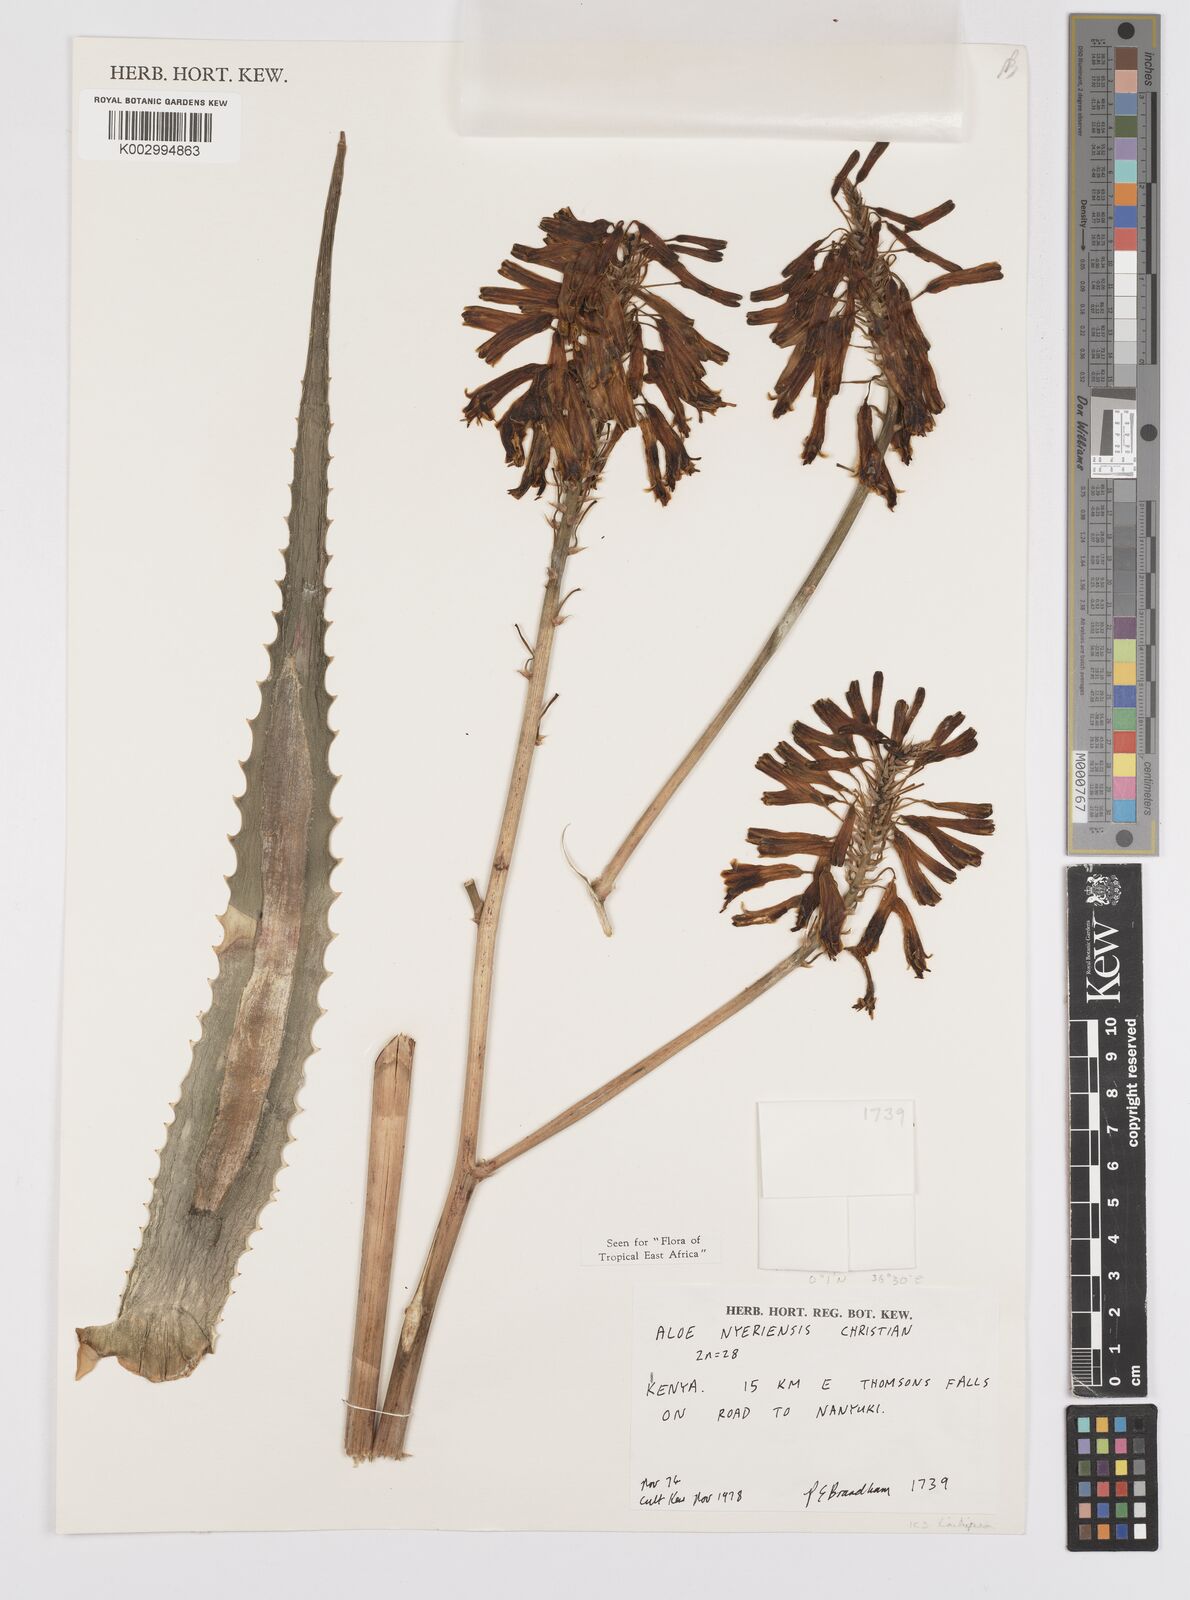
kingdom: Plantae
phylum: Tracheophyta
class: Liliopsida
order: Asparagales
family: Asphodelaceae
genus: Aloe
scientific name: Aloe nyeriensis
